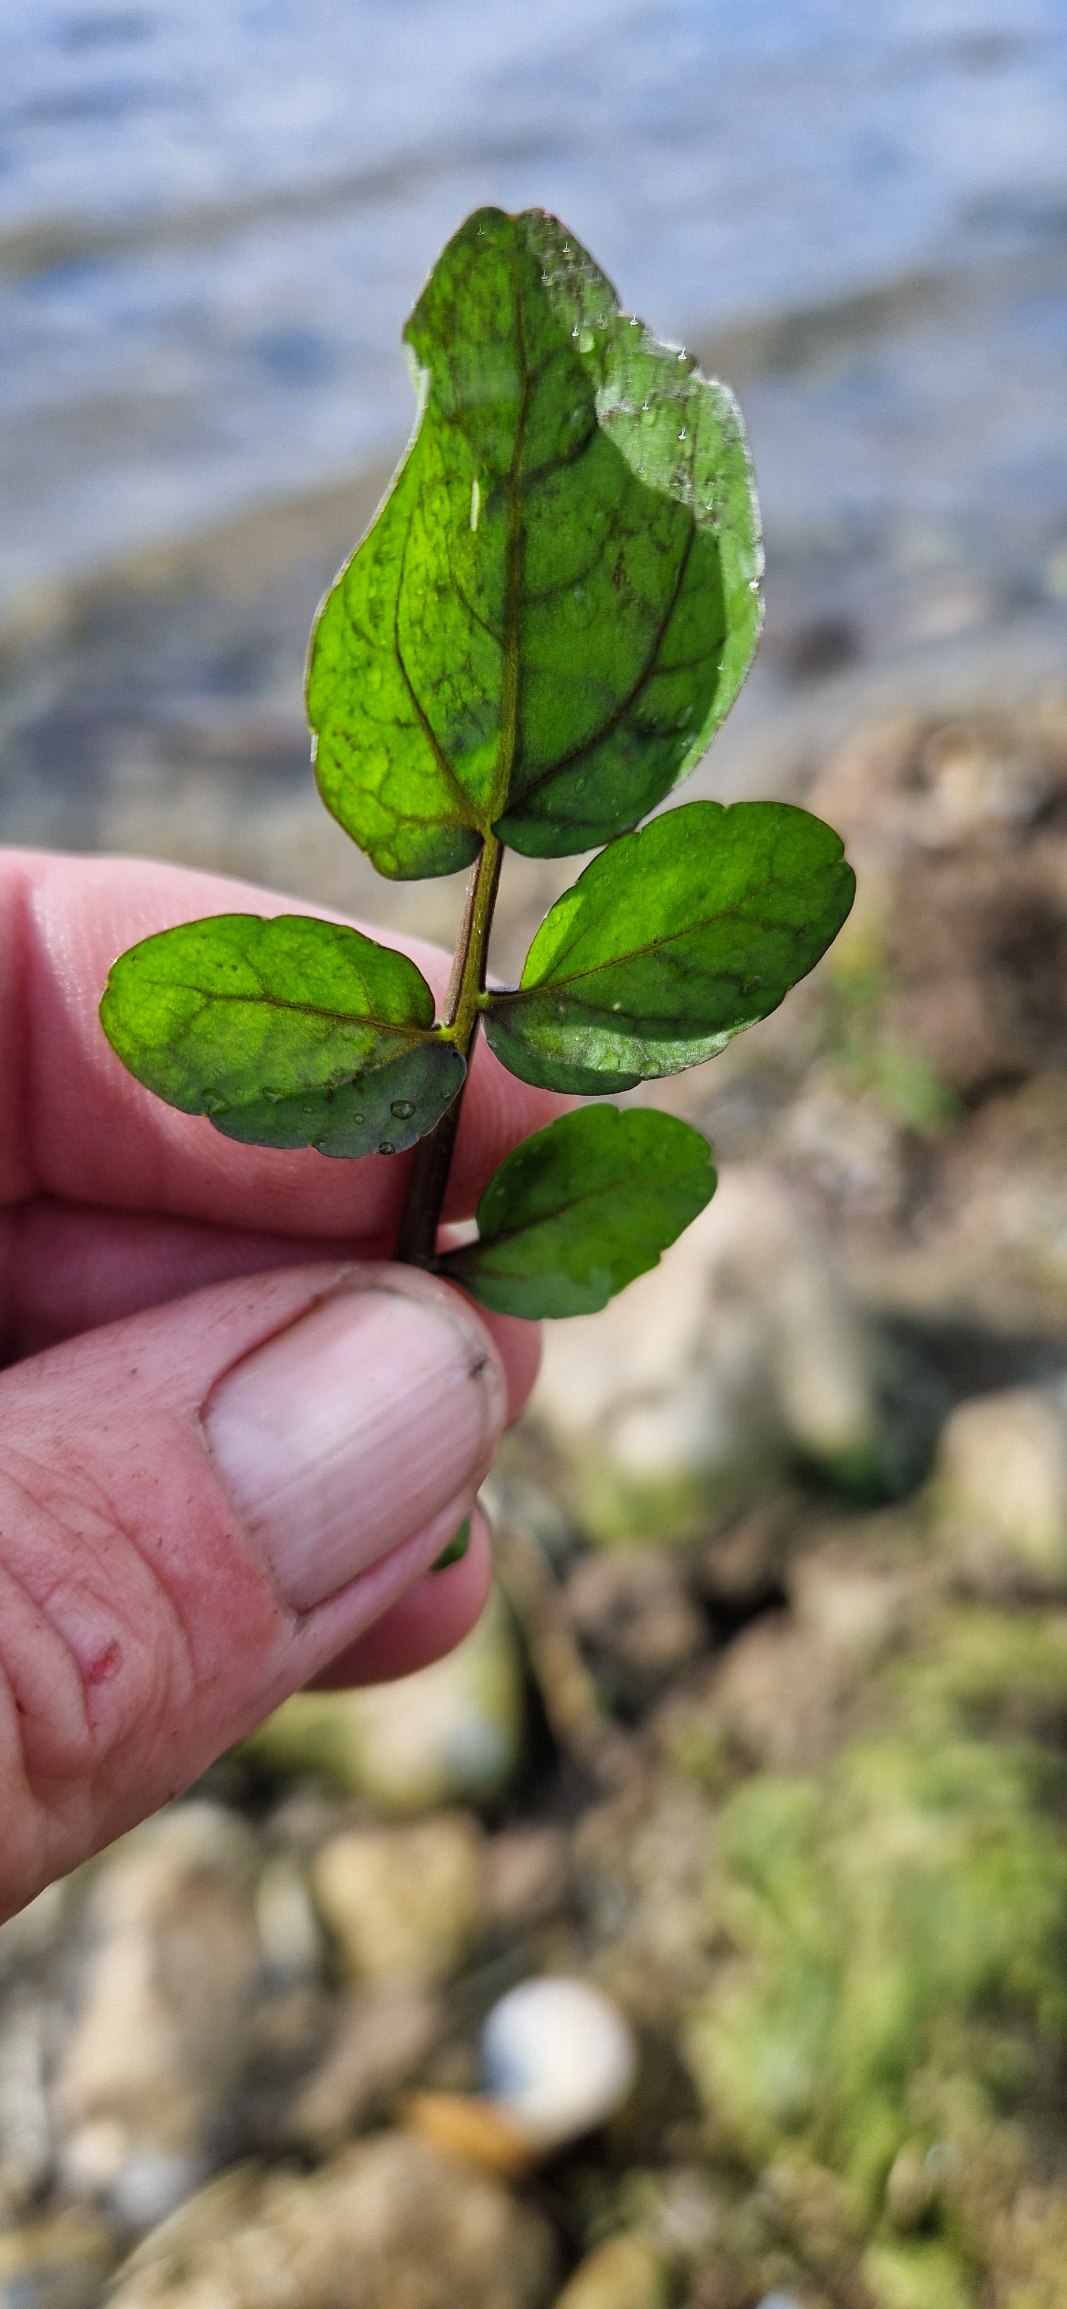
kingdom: Plantae
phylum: Tracheophyta
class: Magnoliopsida
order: Brassicales
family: Brassicaceae
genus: Nasturtium
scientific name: Nasturtium
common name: Brøndkarseslægten
